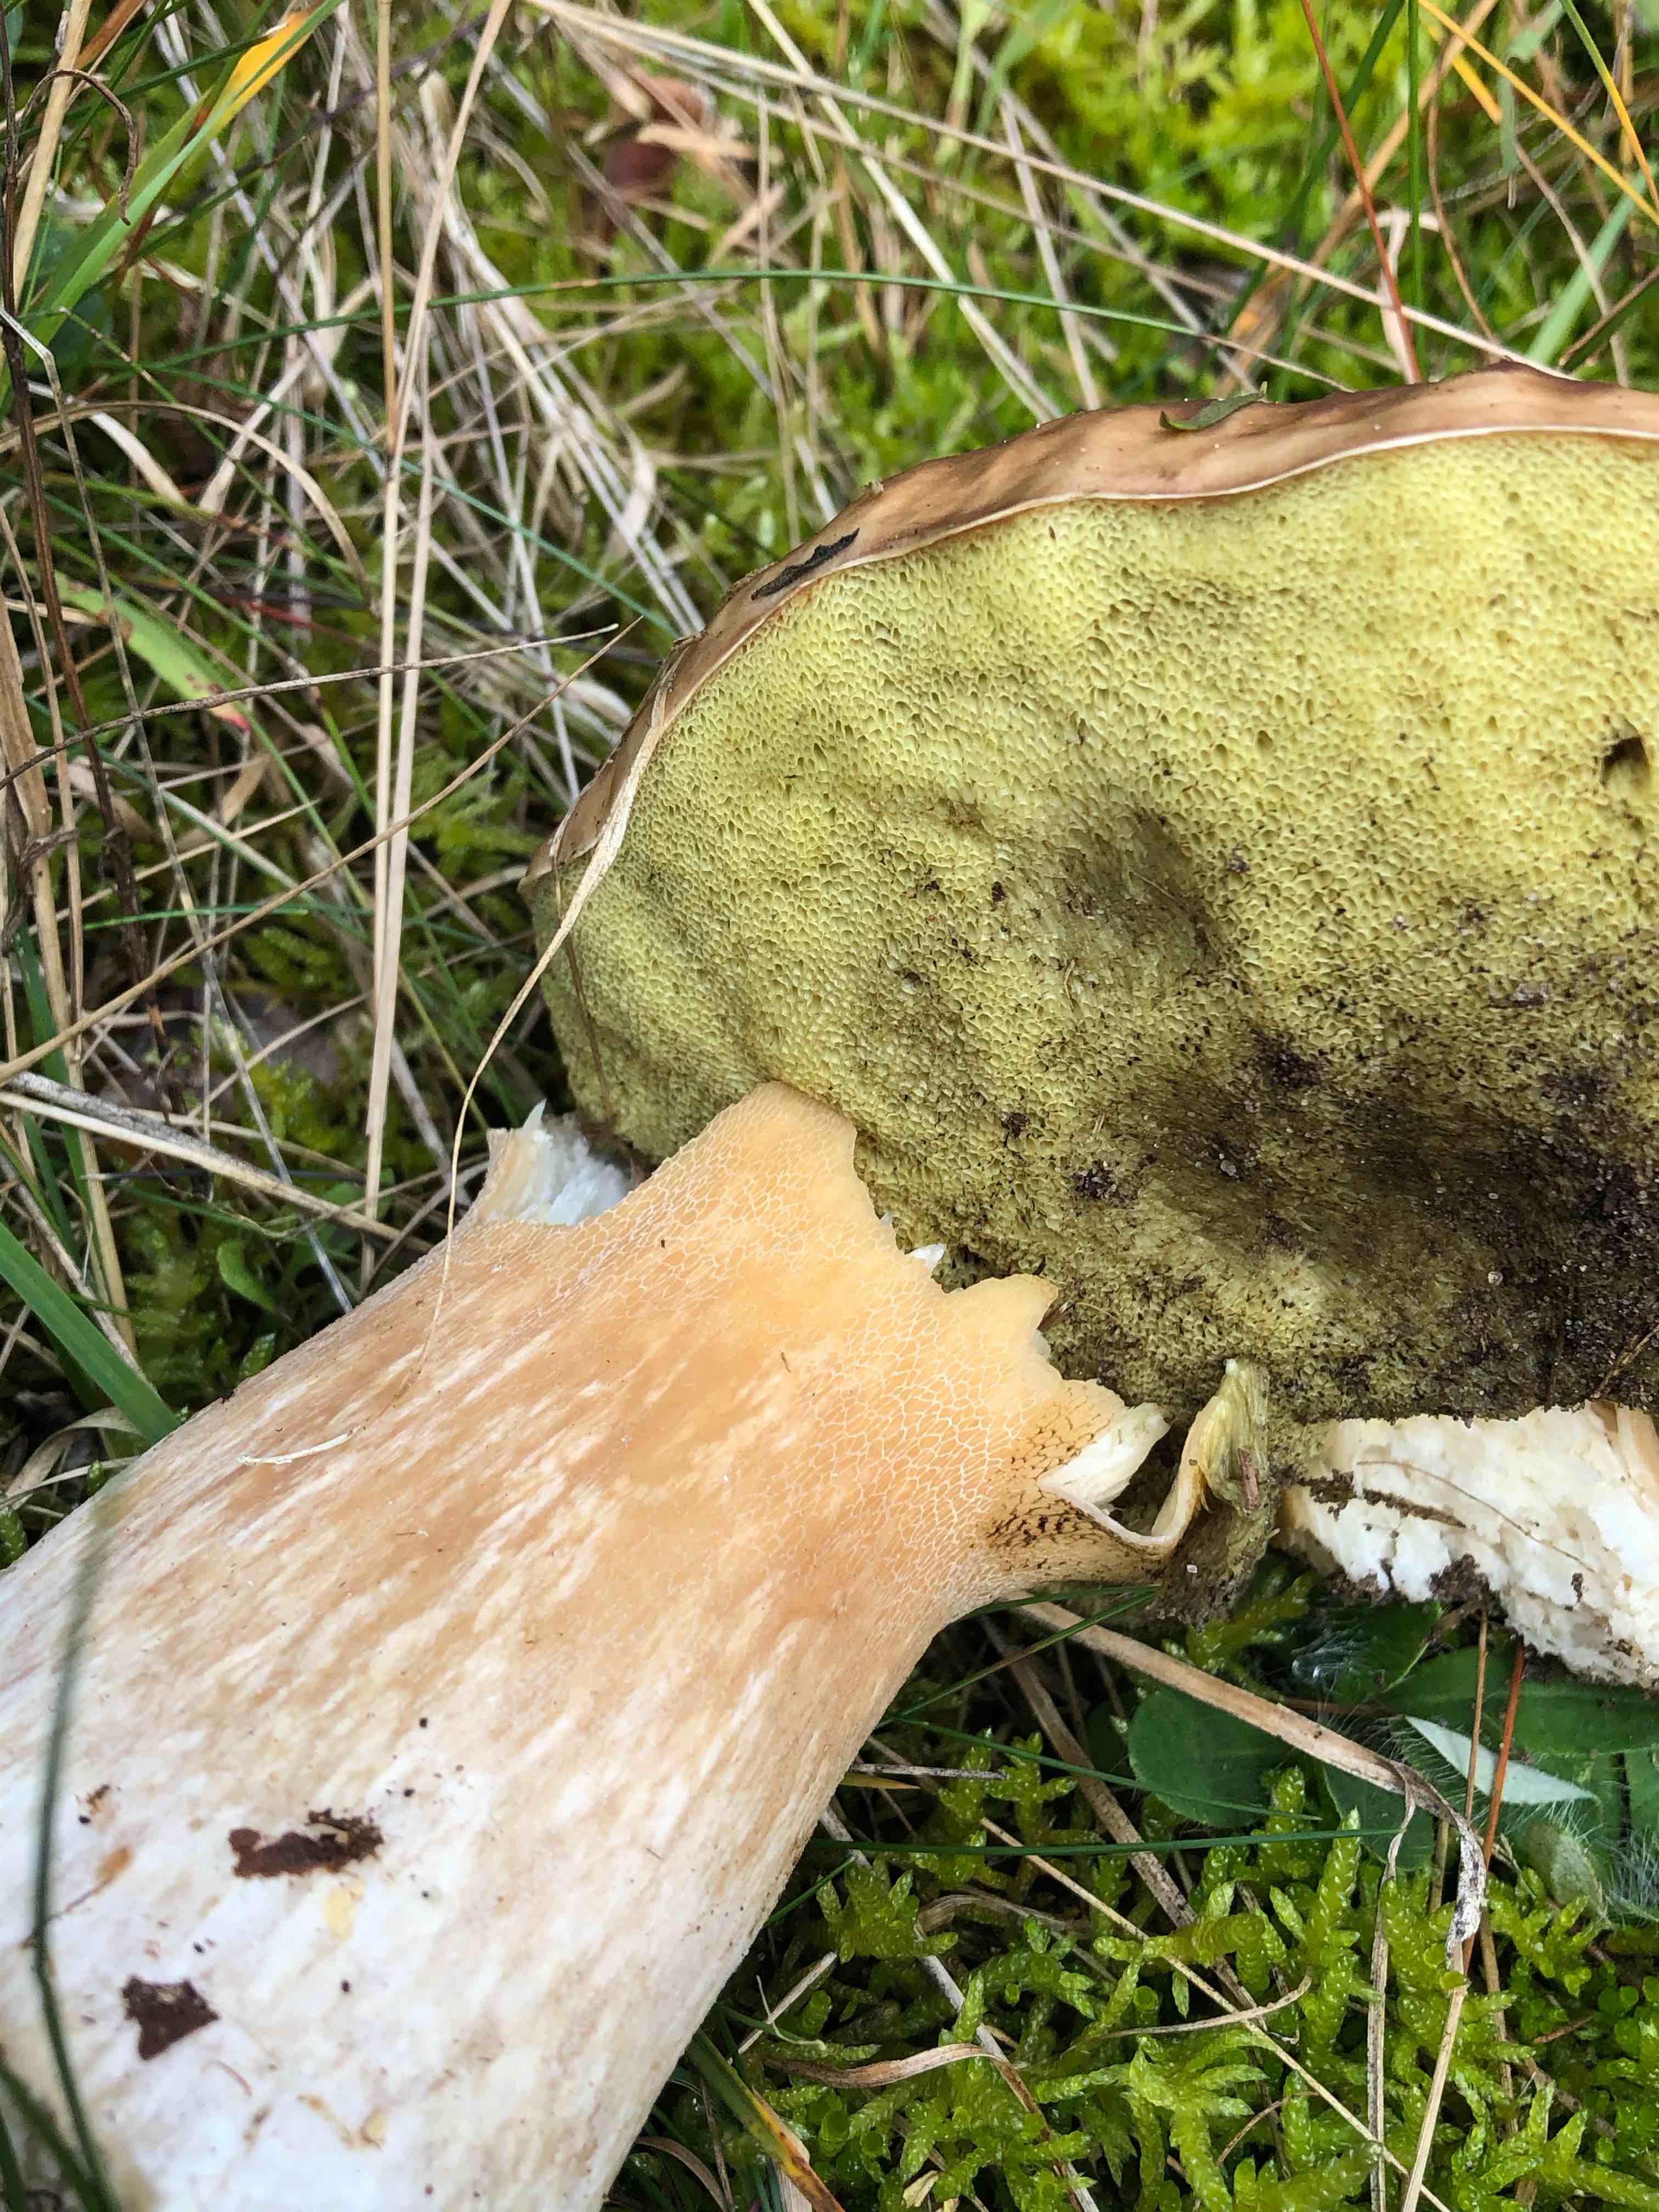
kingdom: Fungi
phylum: Basidiomycota
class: Agaricomycetes
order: Boletales
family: Boletaceae
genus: Boletus
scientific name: Boletus edulis
